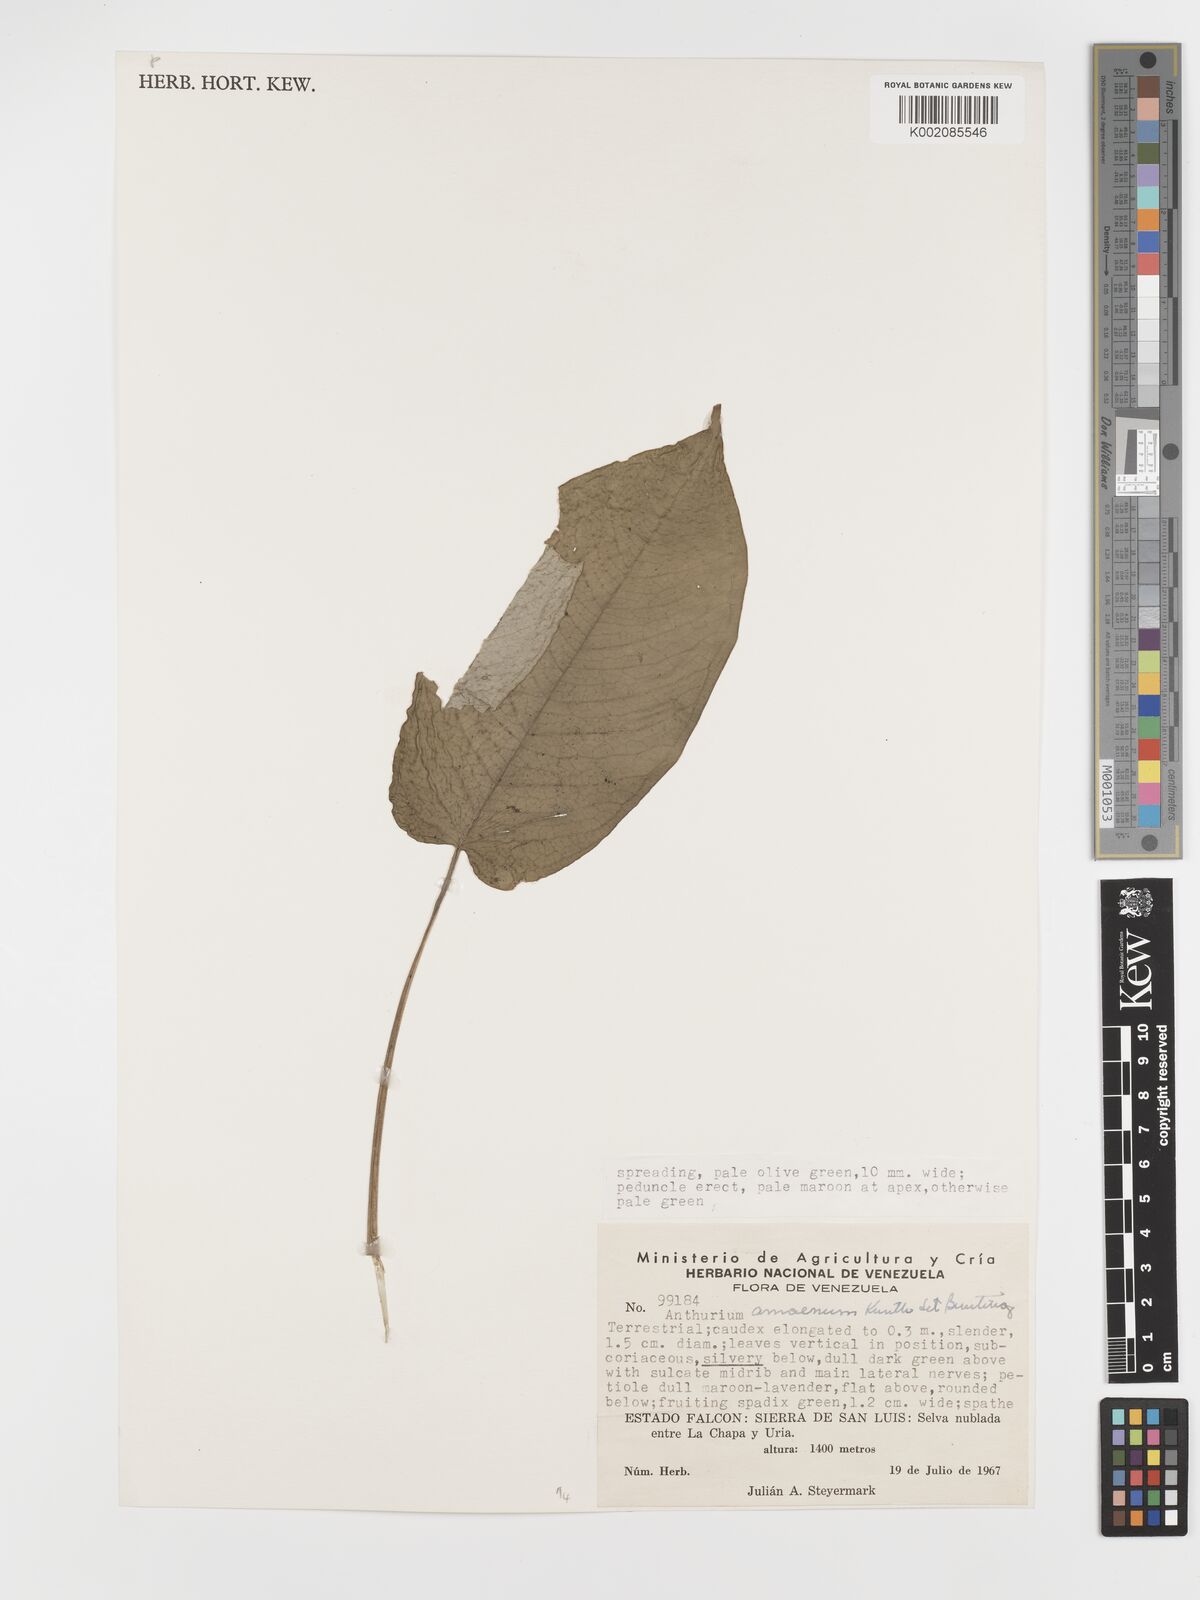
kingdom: Plantae
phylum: Tracheophyta
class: Liliopsida
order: Alismatales
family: Araceae
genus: Anthurium
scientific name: Anthurium amoenum
